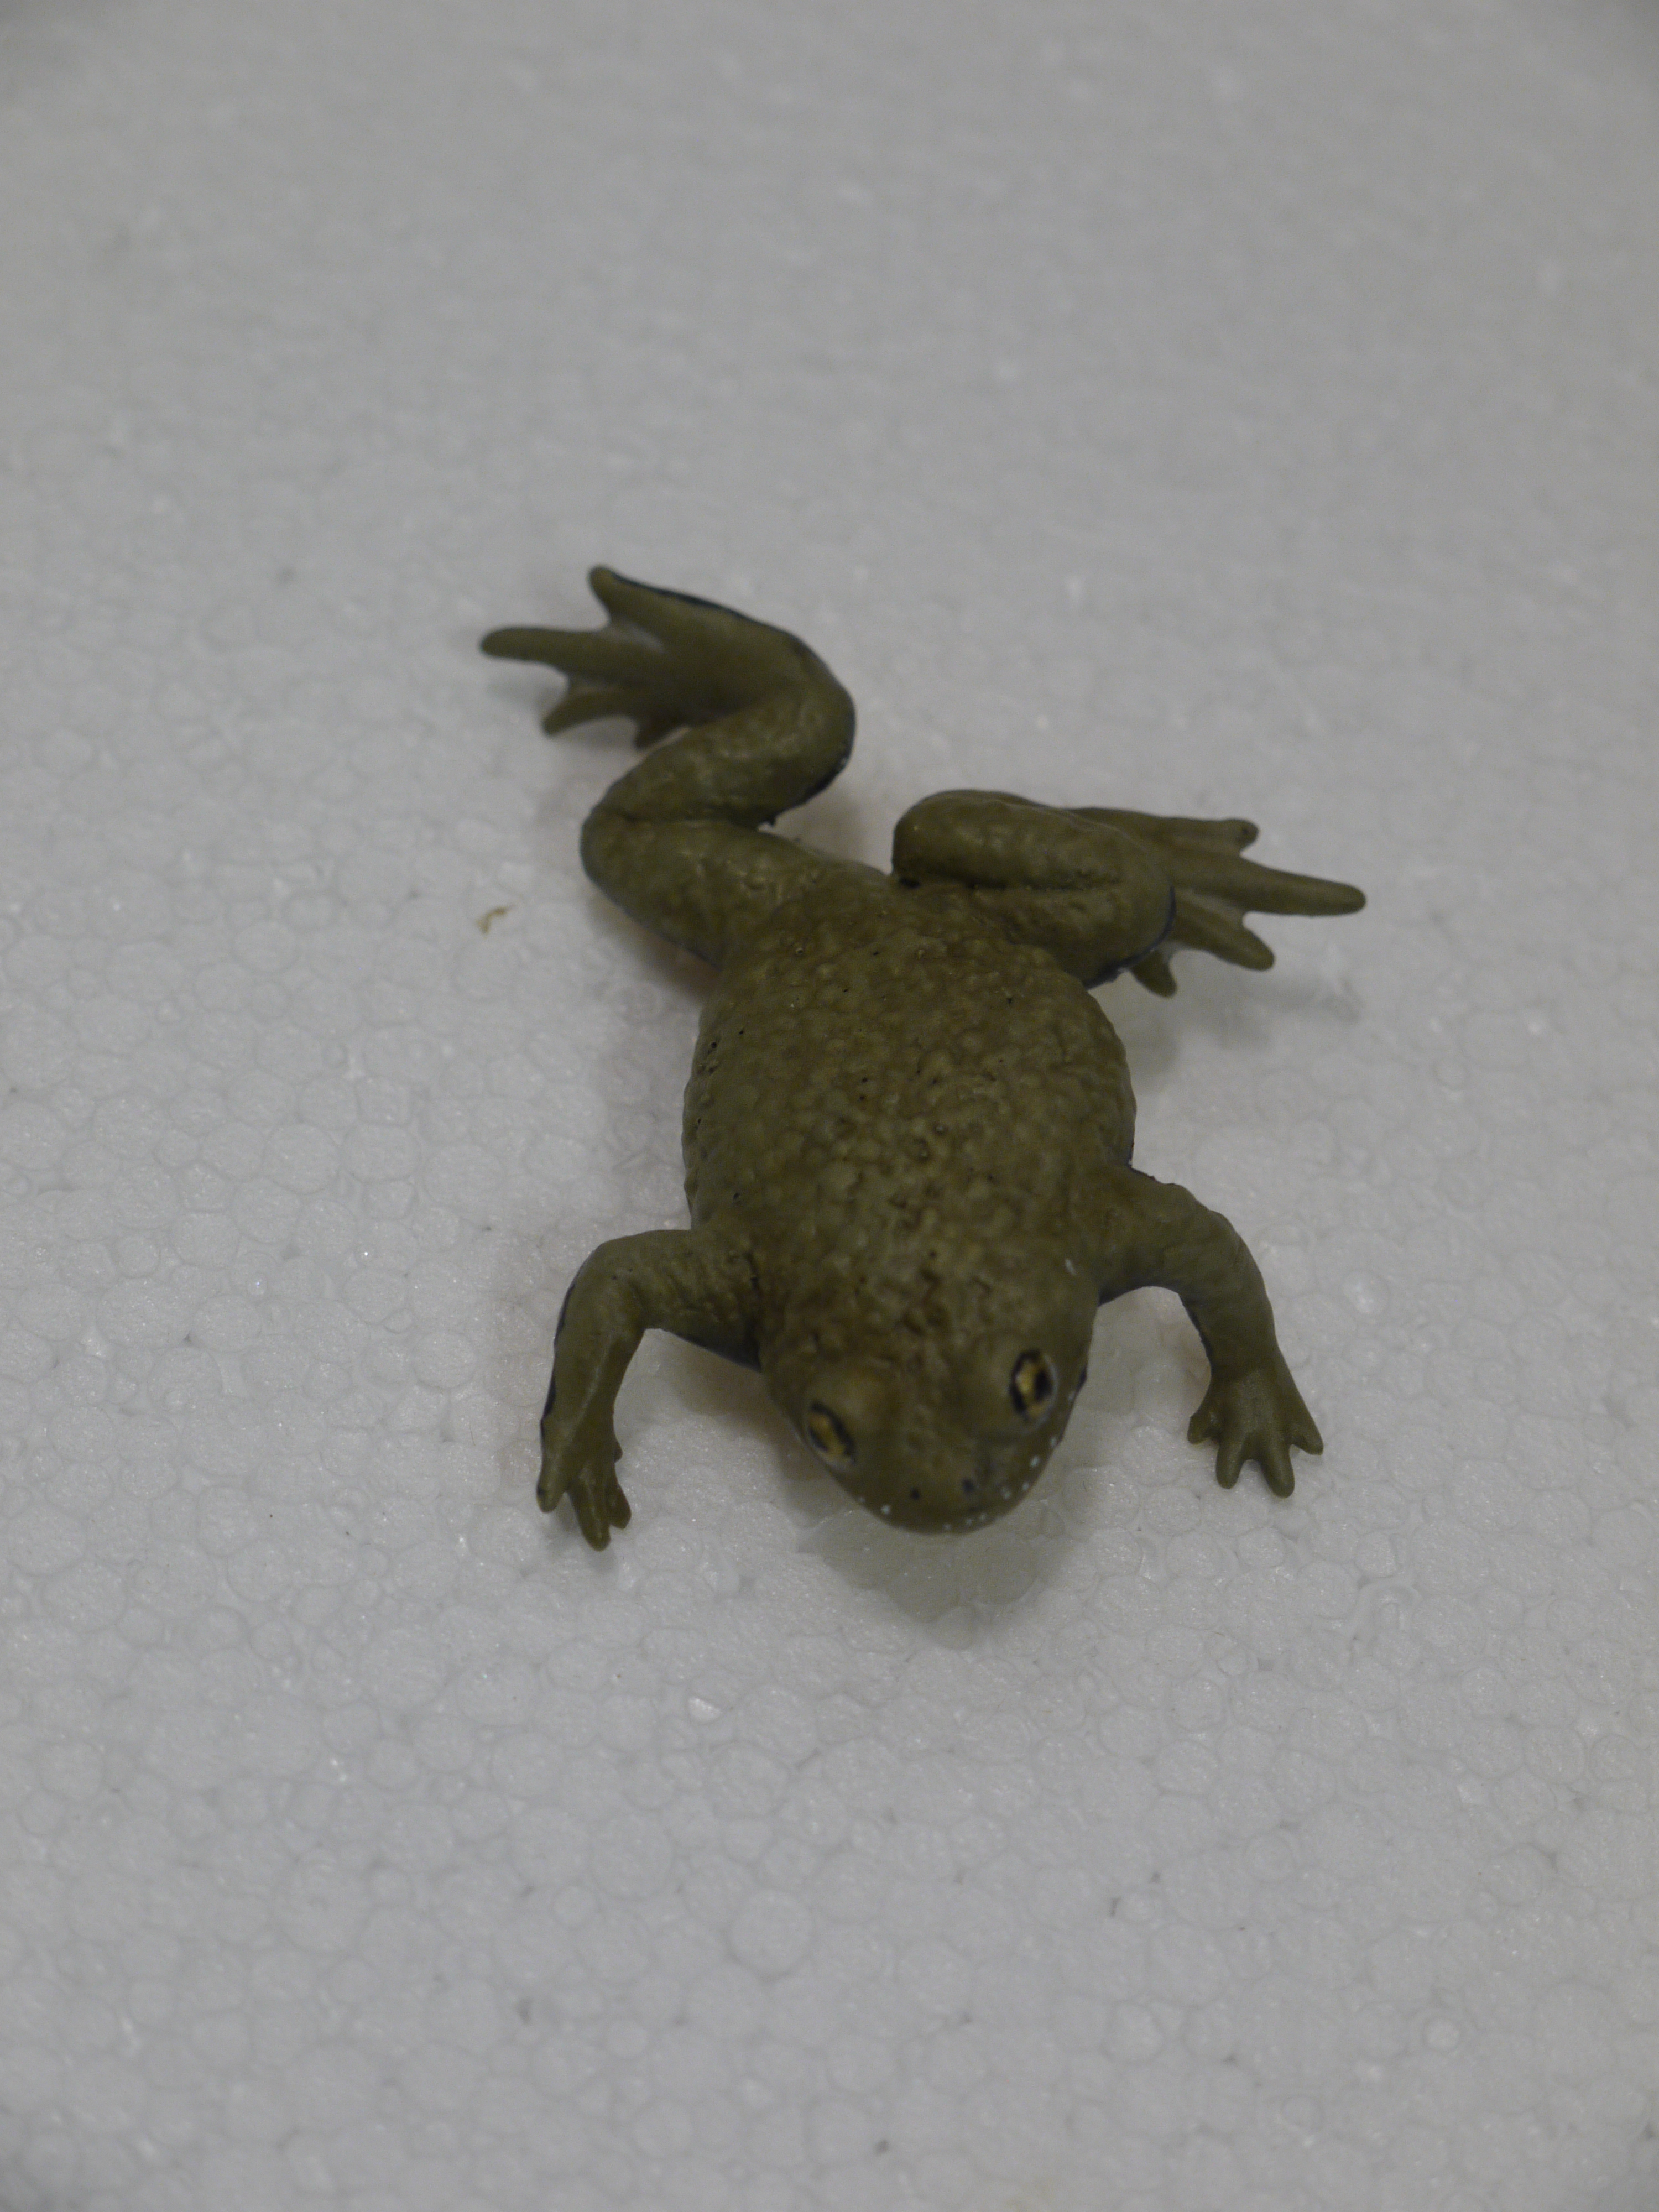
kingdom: Animalia
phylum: Chordata
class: Amphibia
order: Anura
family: Bombinatoridae
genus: Bombina
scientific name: Bombina variegata
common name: Yellow-bellied toad
